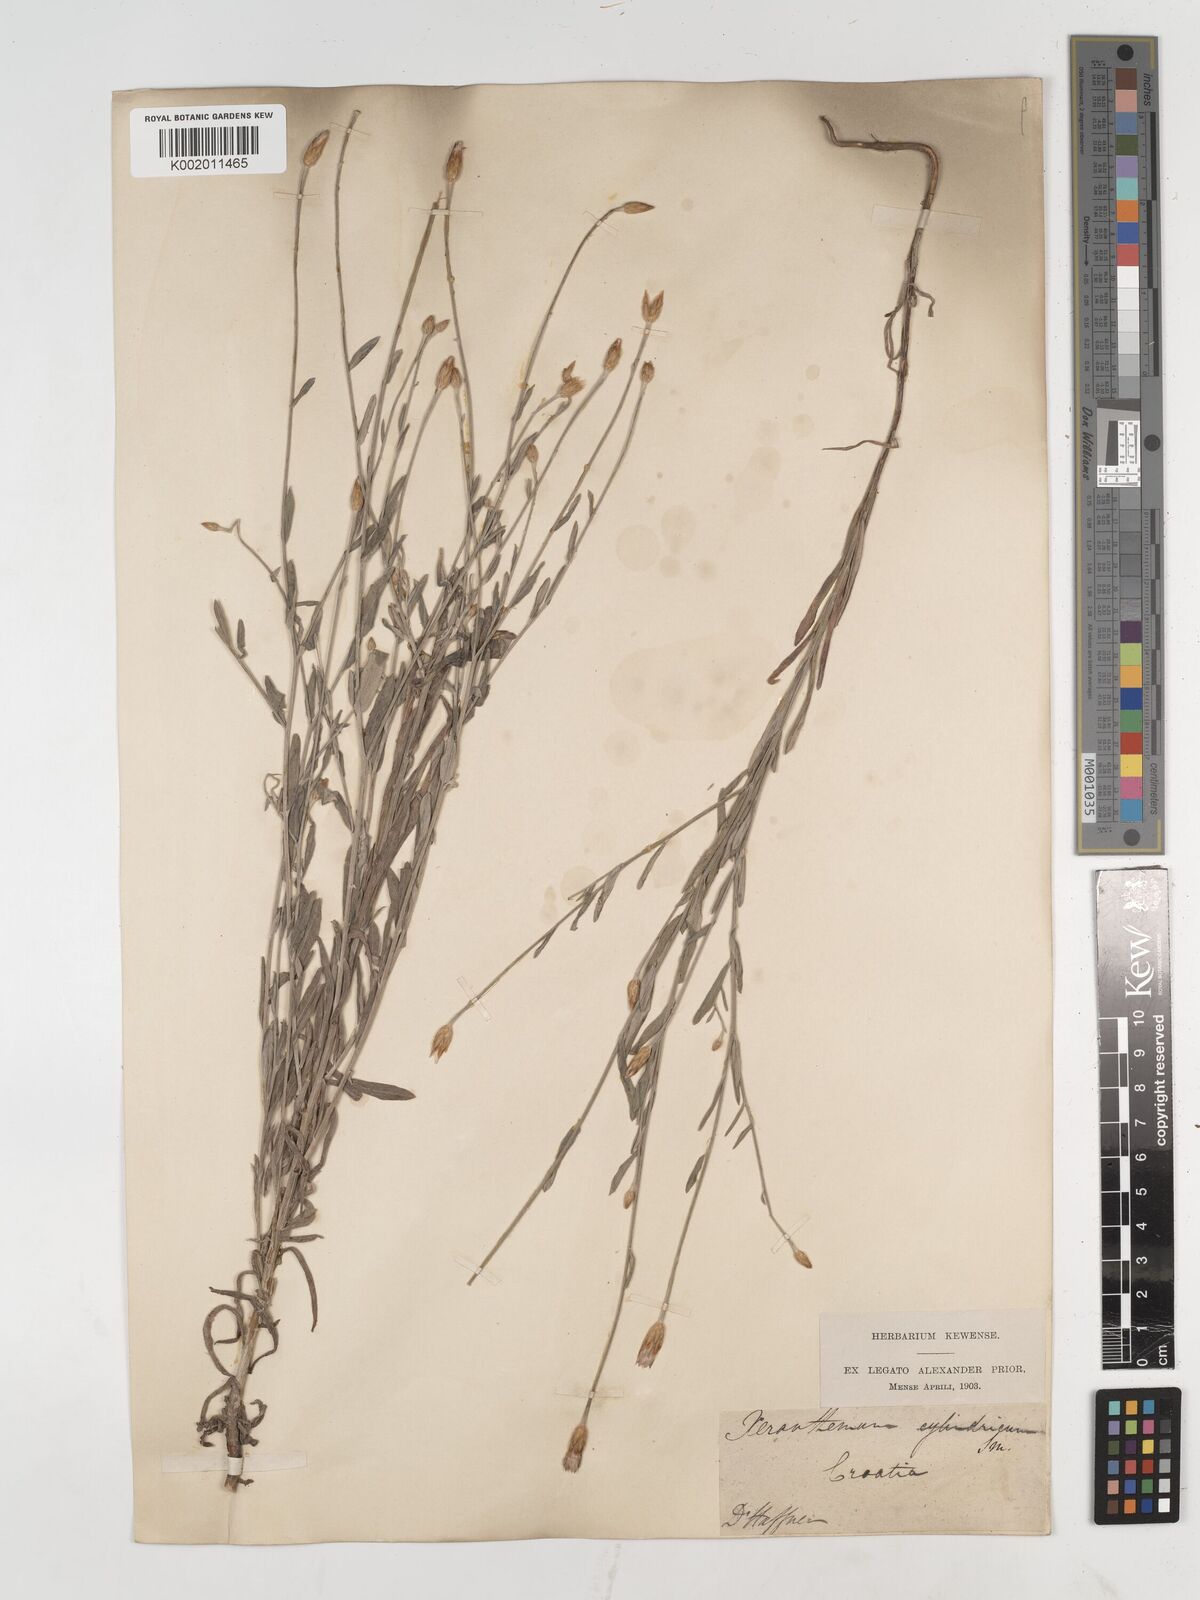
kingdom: Plantae
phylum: Tracheophyta
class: Magnoliopsida
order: Asterales
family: Asteraceae
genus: Xeranthemum
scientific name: Xeranthemum cylindraceum
